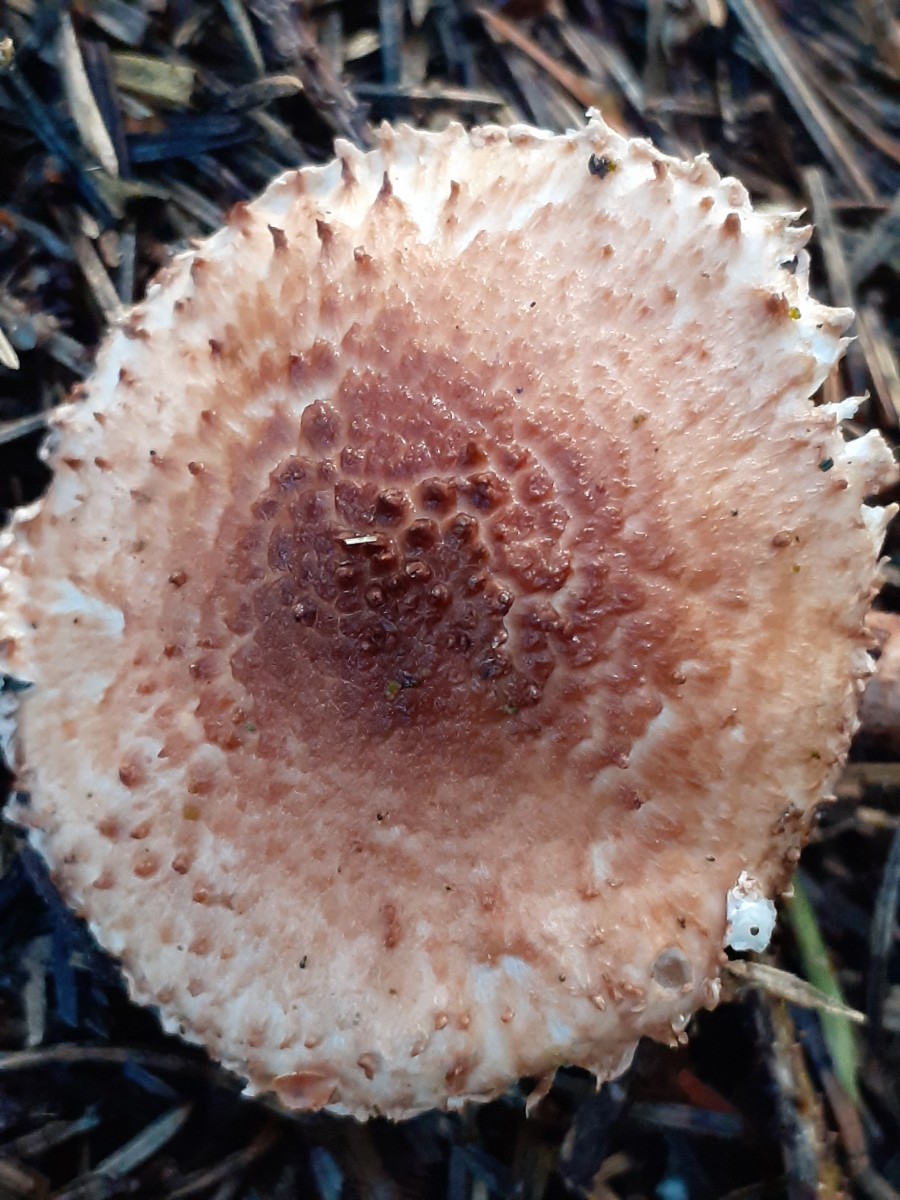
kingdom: Fungi
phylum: Basidiomycota
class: Agaricomycetes
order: Agaricales
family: Agaricaceae
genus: Echinoderma
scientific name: Echinoderma echinaceum
